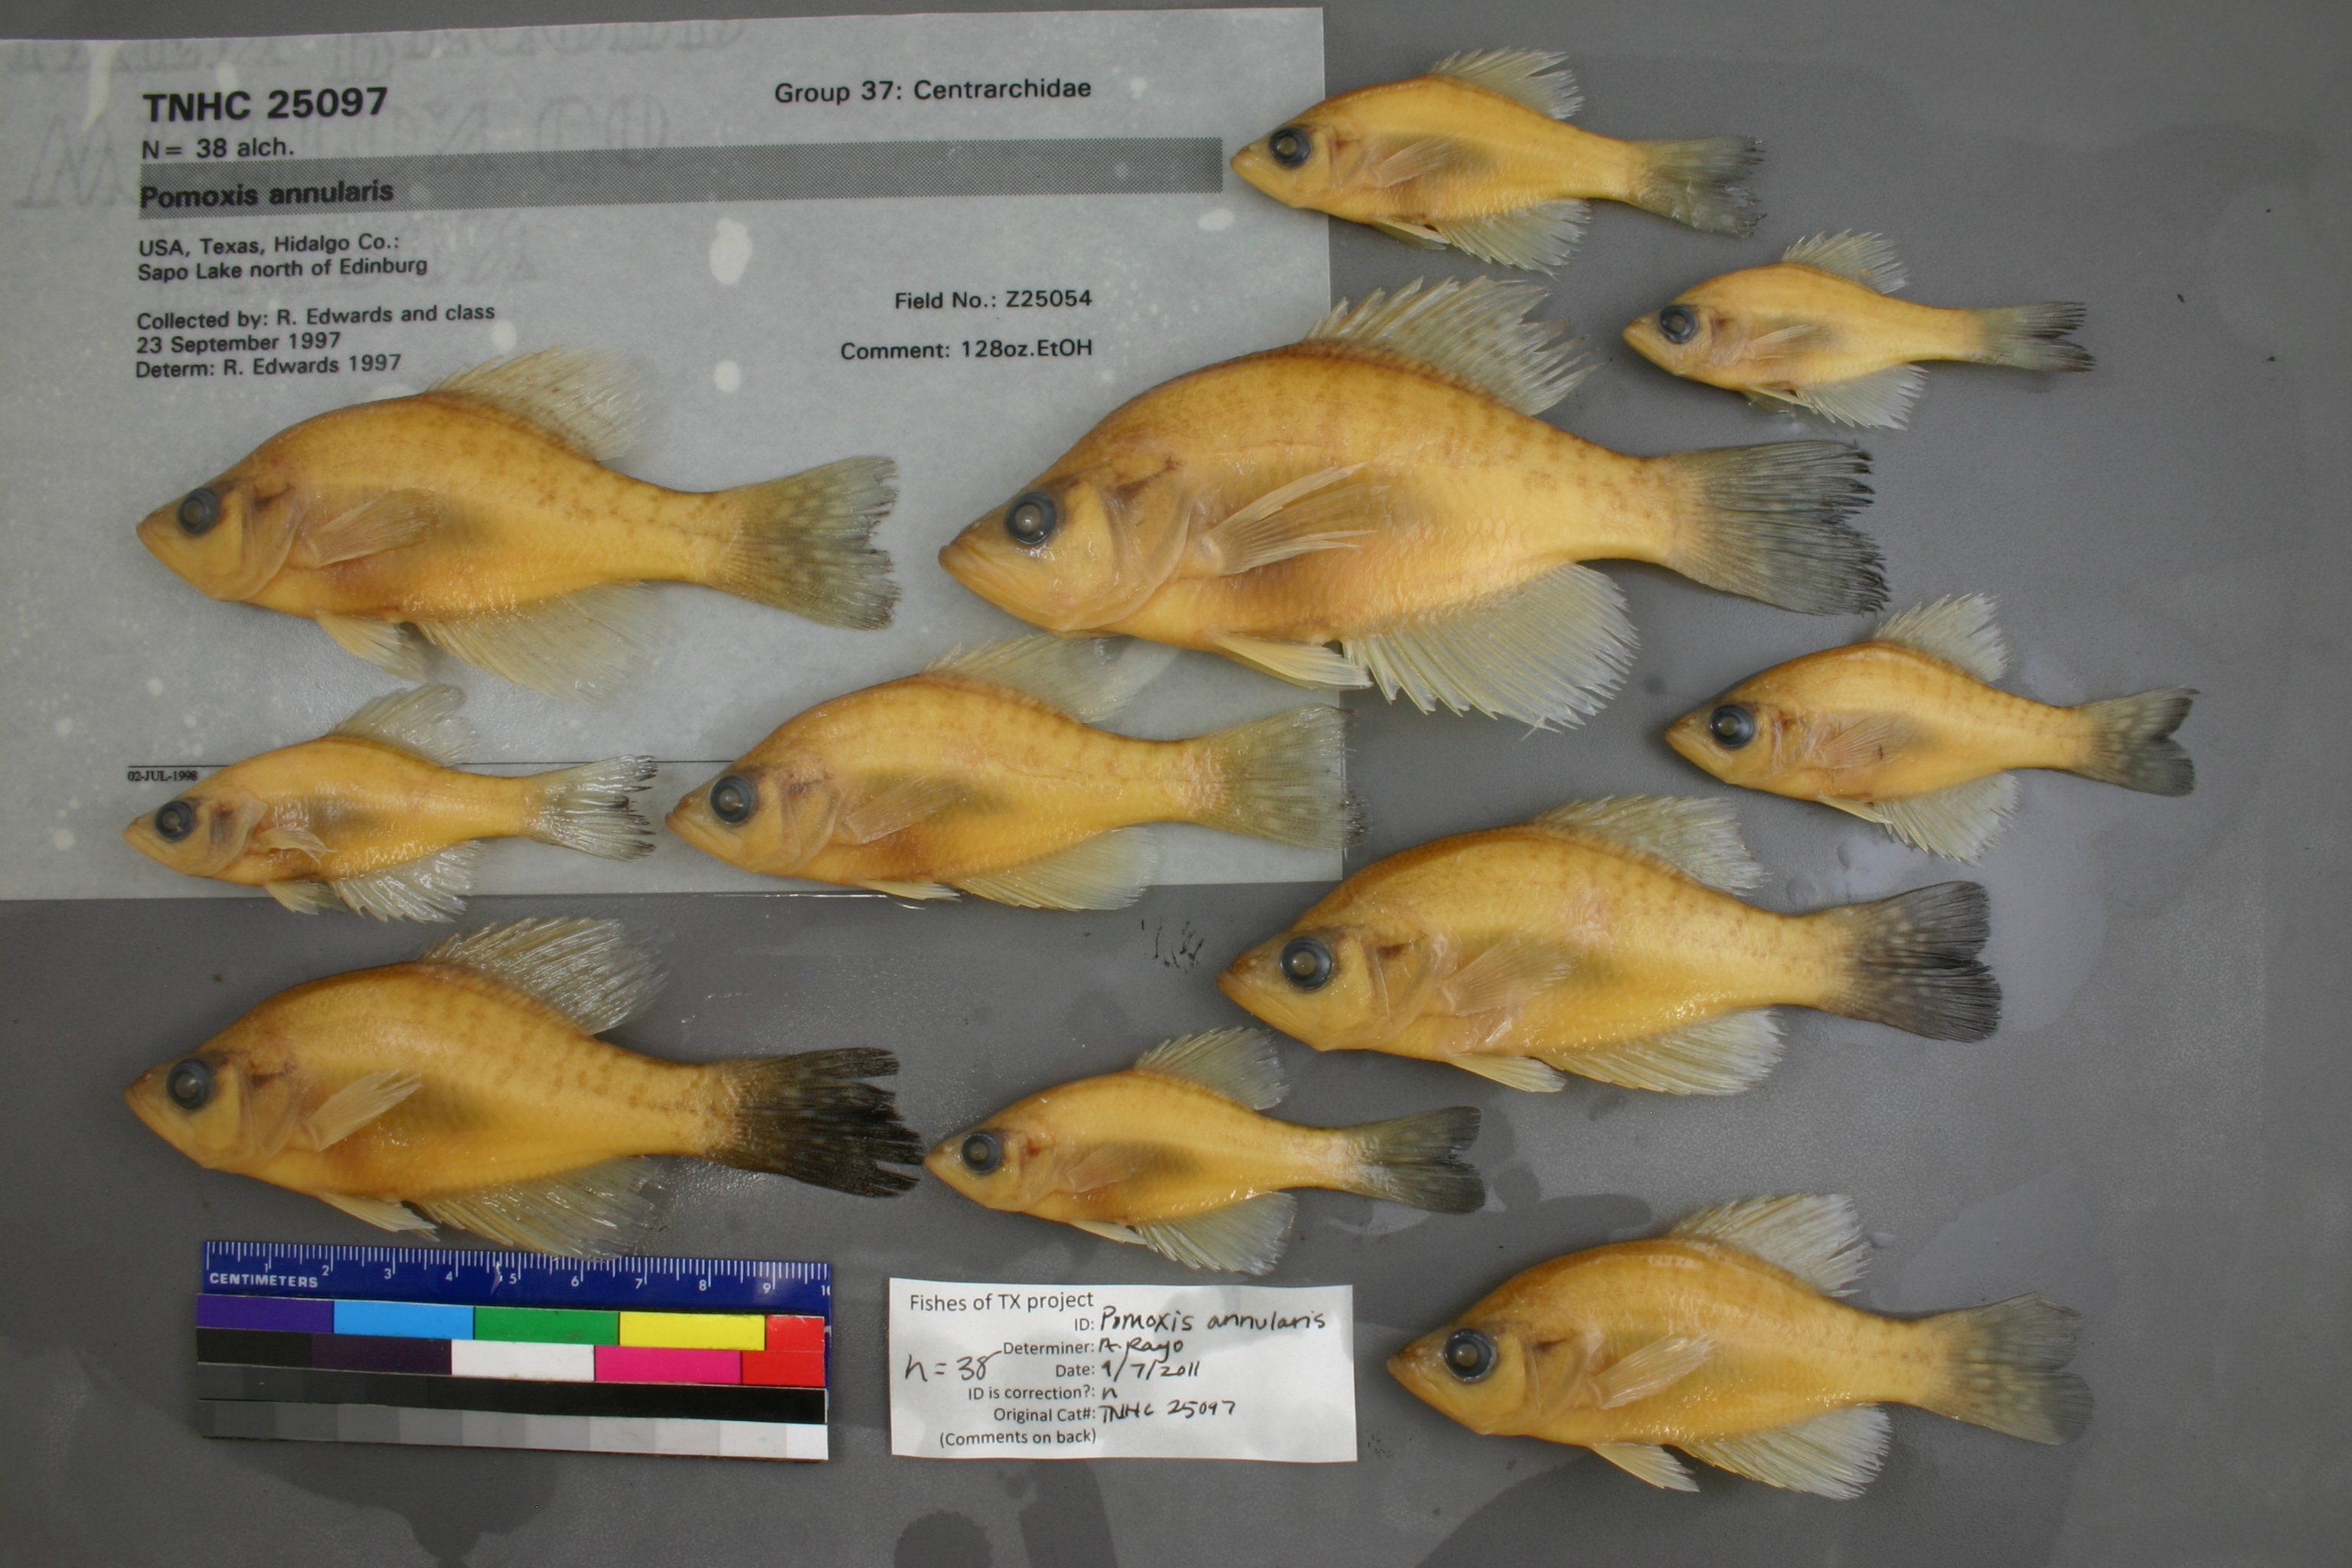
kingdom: Animalia
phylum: Chordata
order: Perciformes
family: Centrarchidae
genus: Pomoxis
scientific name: Pomoxis annularis
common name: White crappie
